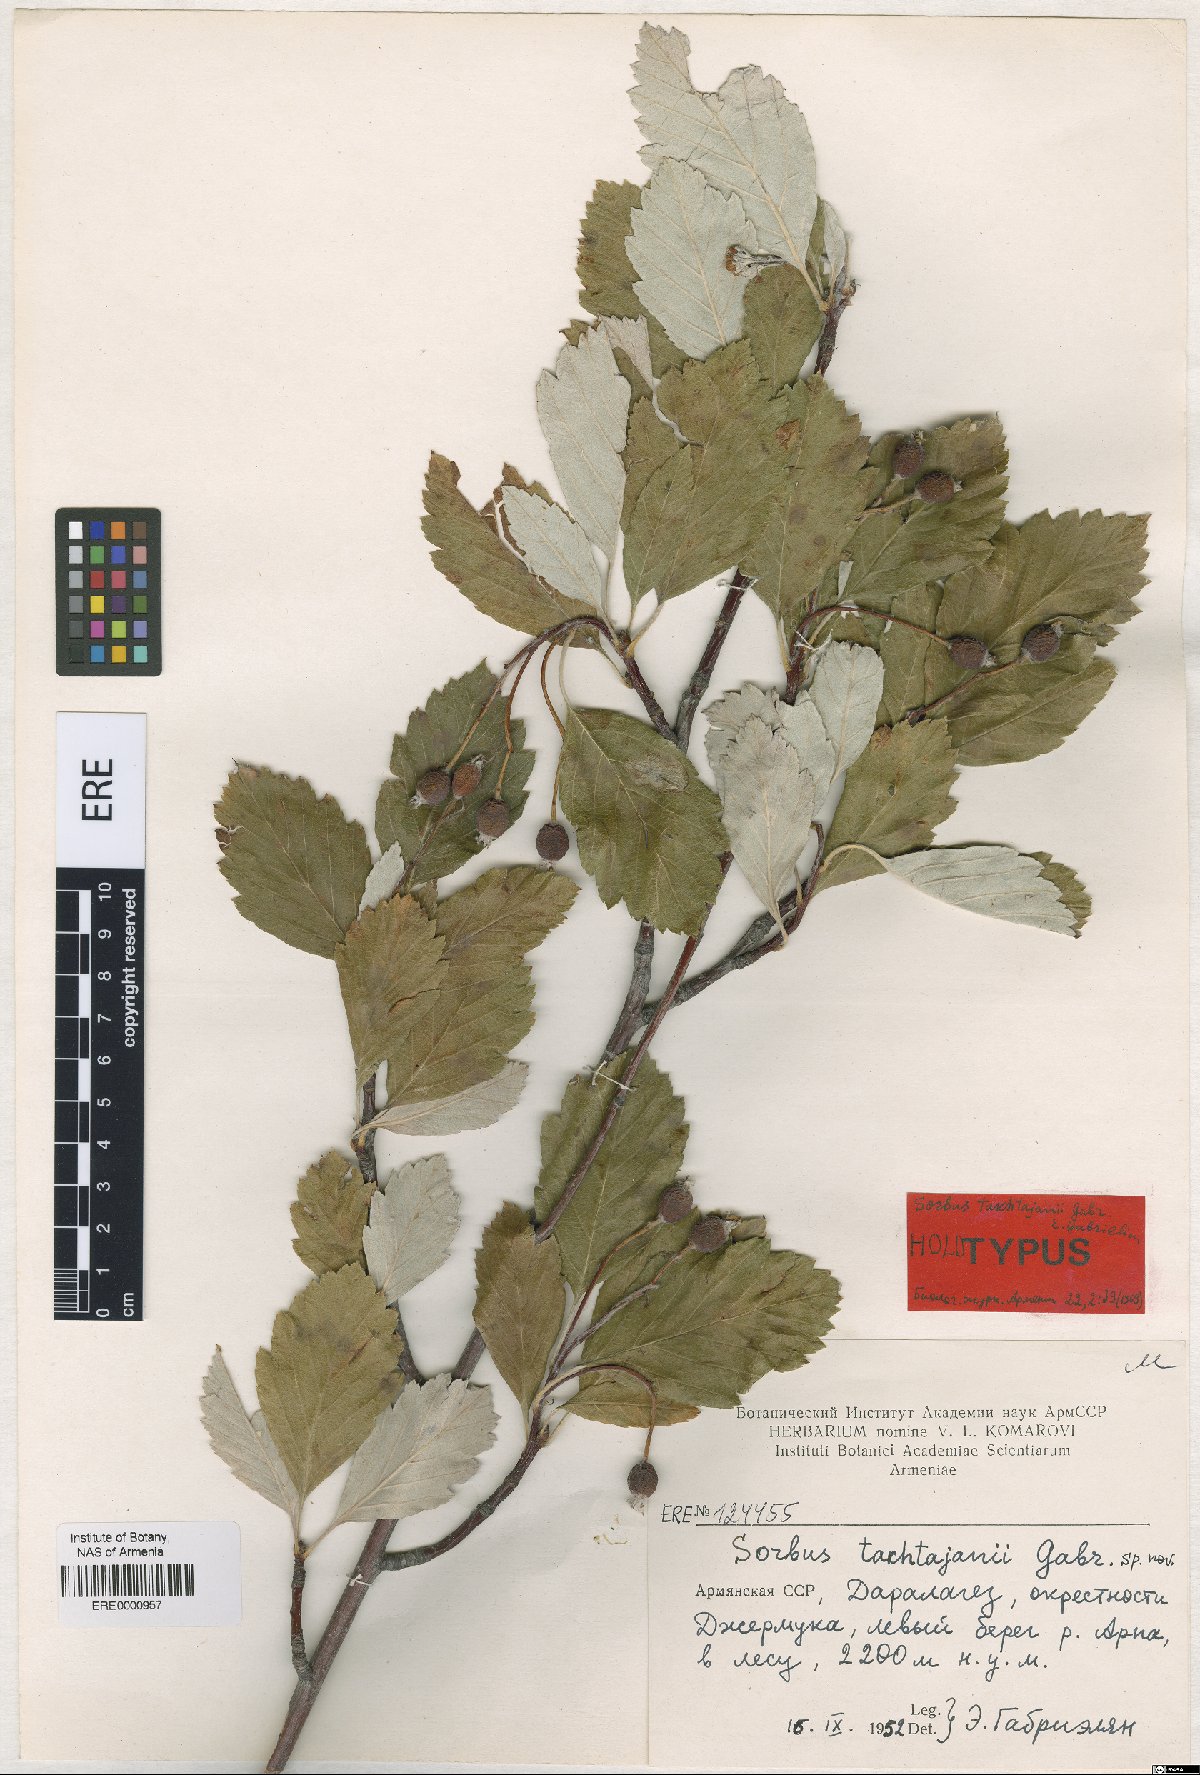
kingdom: Plantae
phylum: Tracheophyta
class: Magnoliopsida
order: Rosales
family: Rosaceae
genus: Hedlundia
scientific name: Hedlundia takhtajanii
